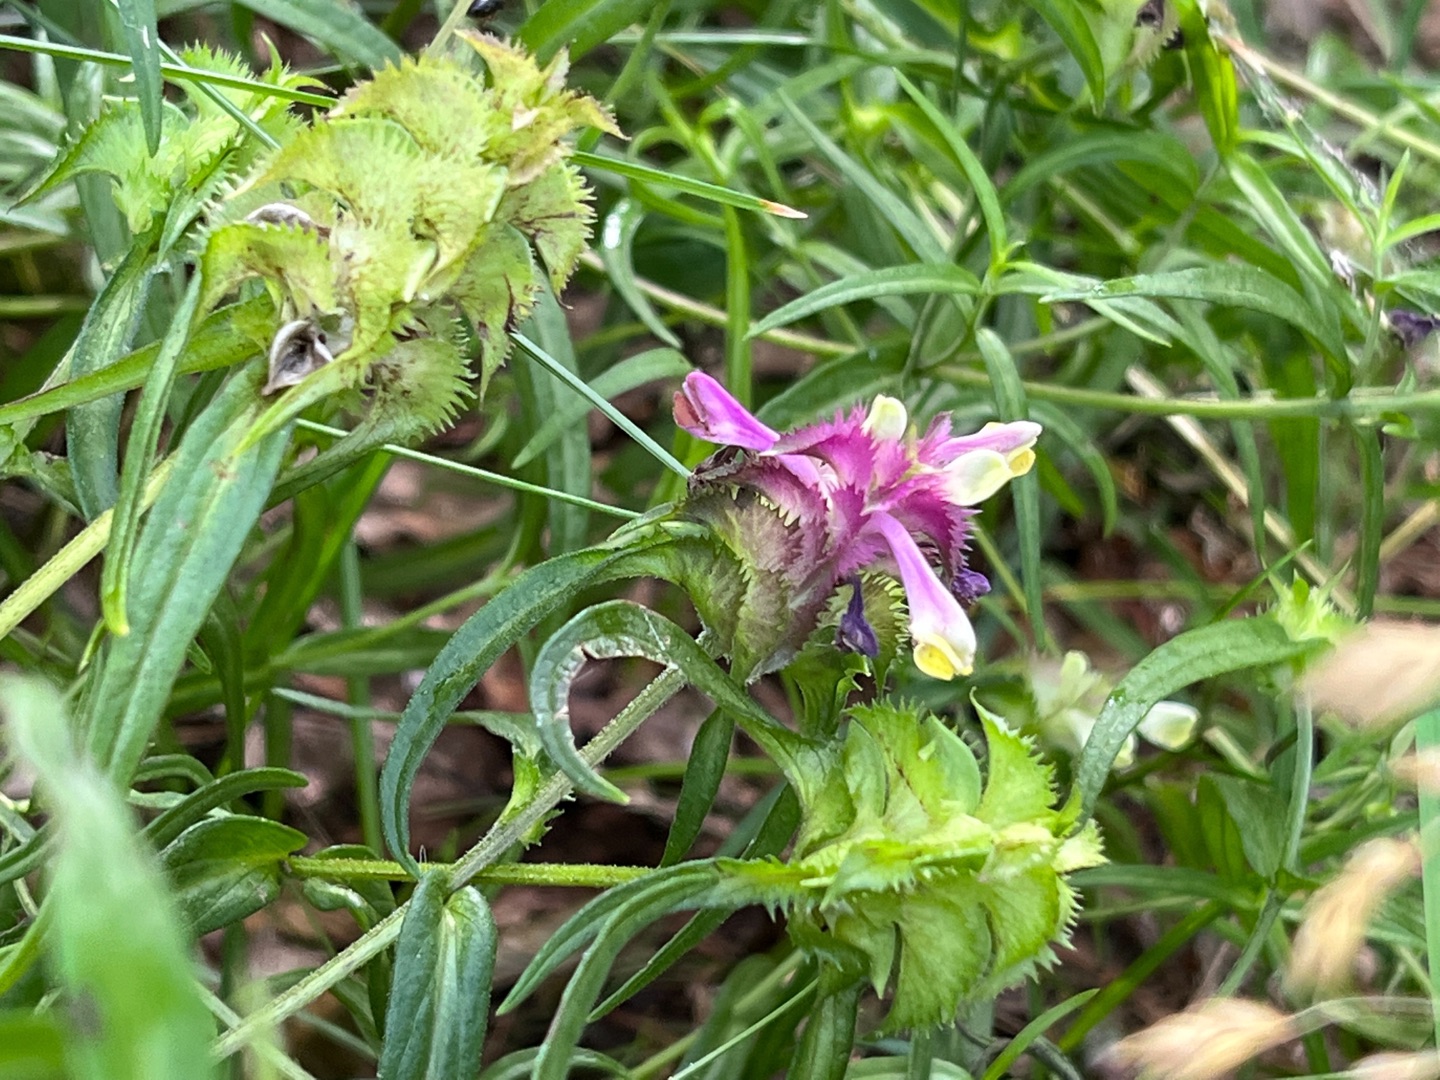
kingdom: Plantae
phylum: Tracheophyta
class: Magnoliopsida
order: Lamiales
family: Orobanchaceae
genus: Melampyrum
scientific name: Melampyrum cristatum
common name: Kantet kohvede
